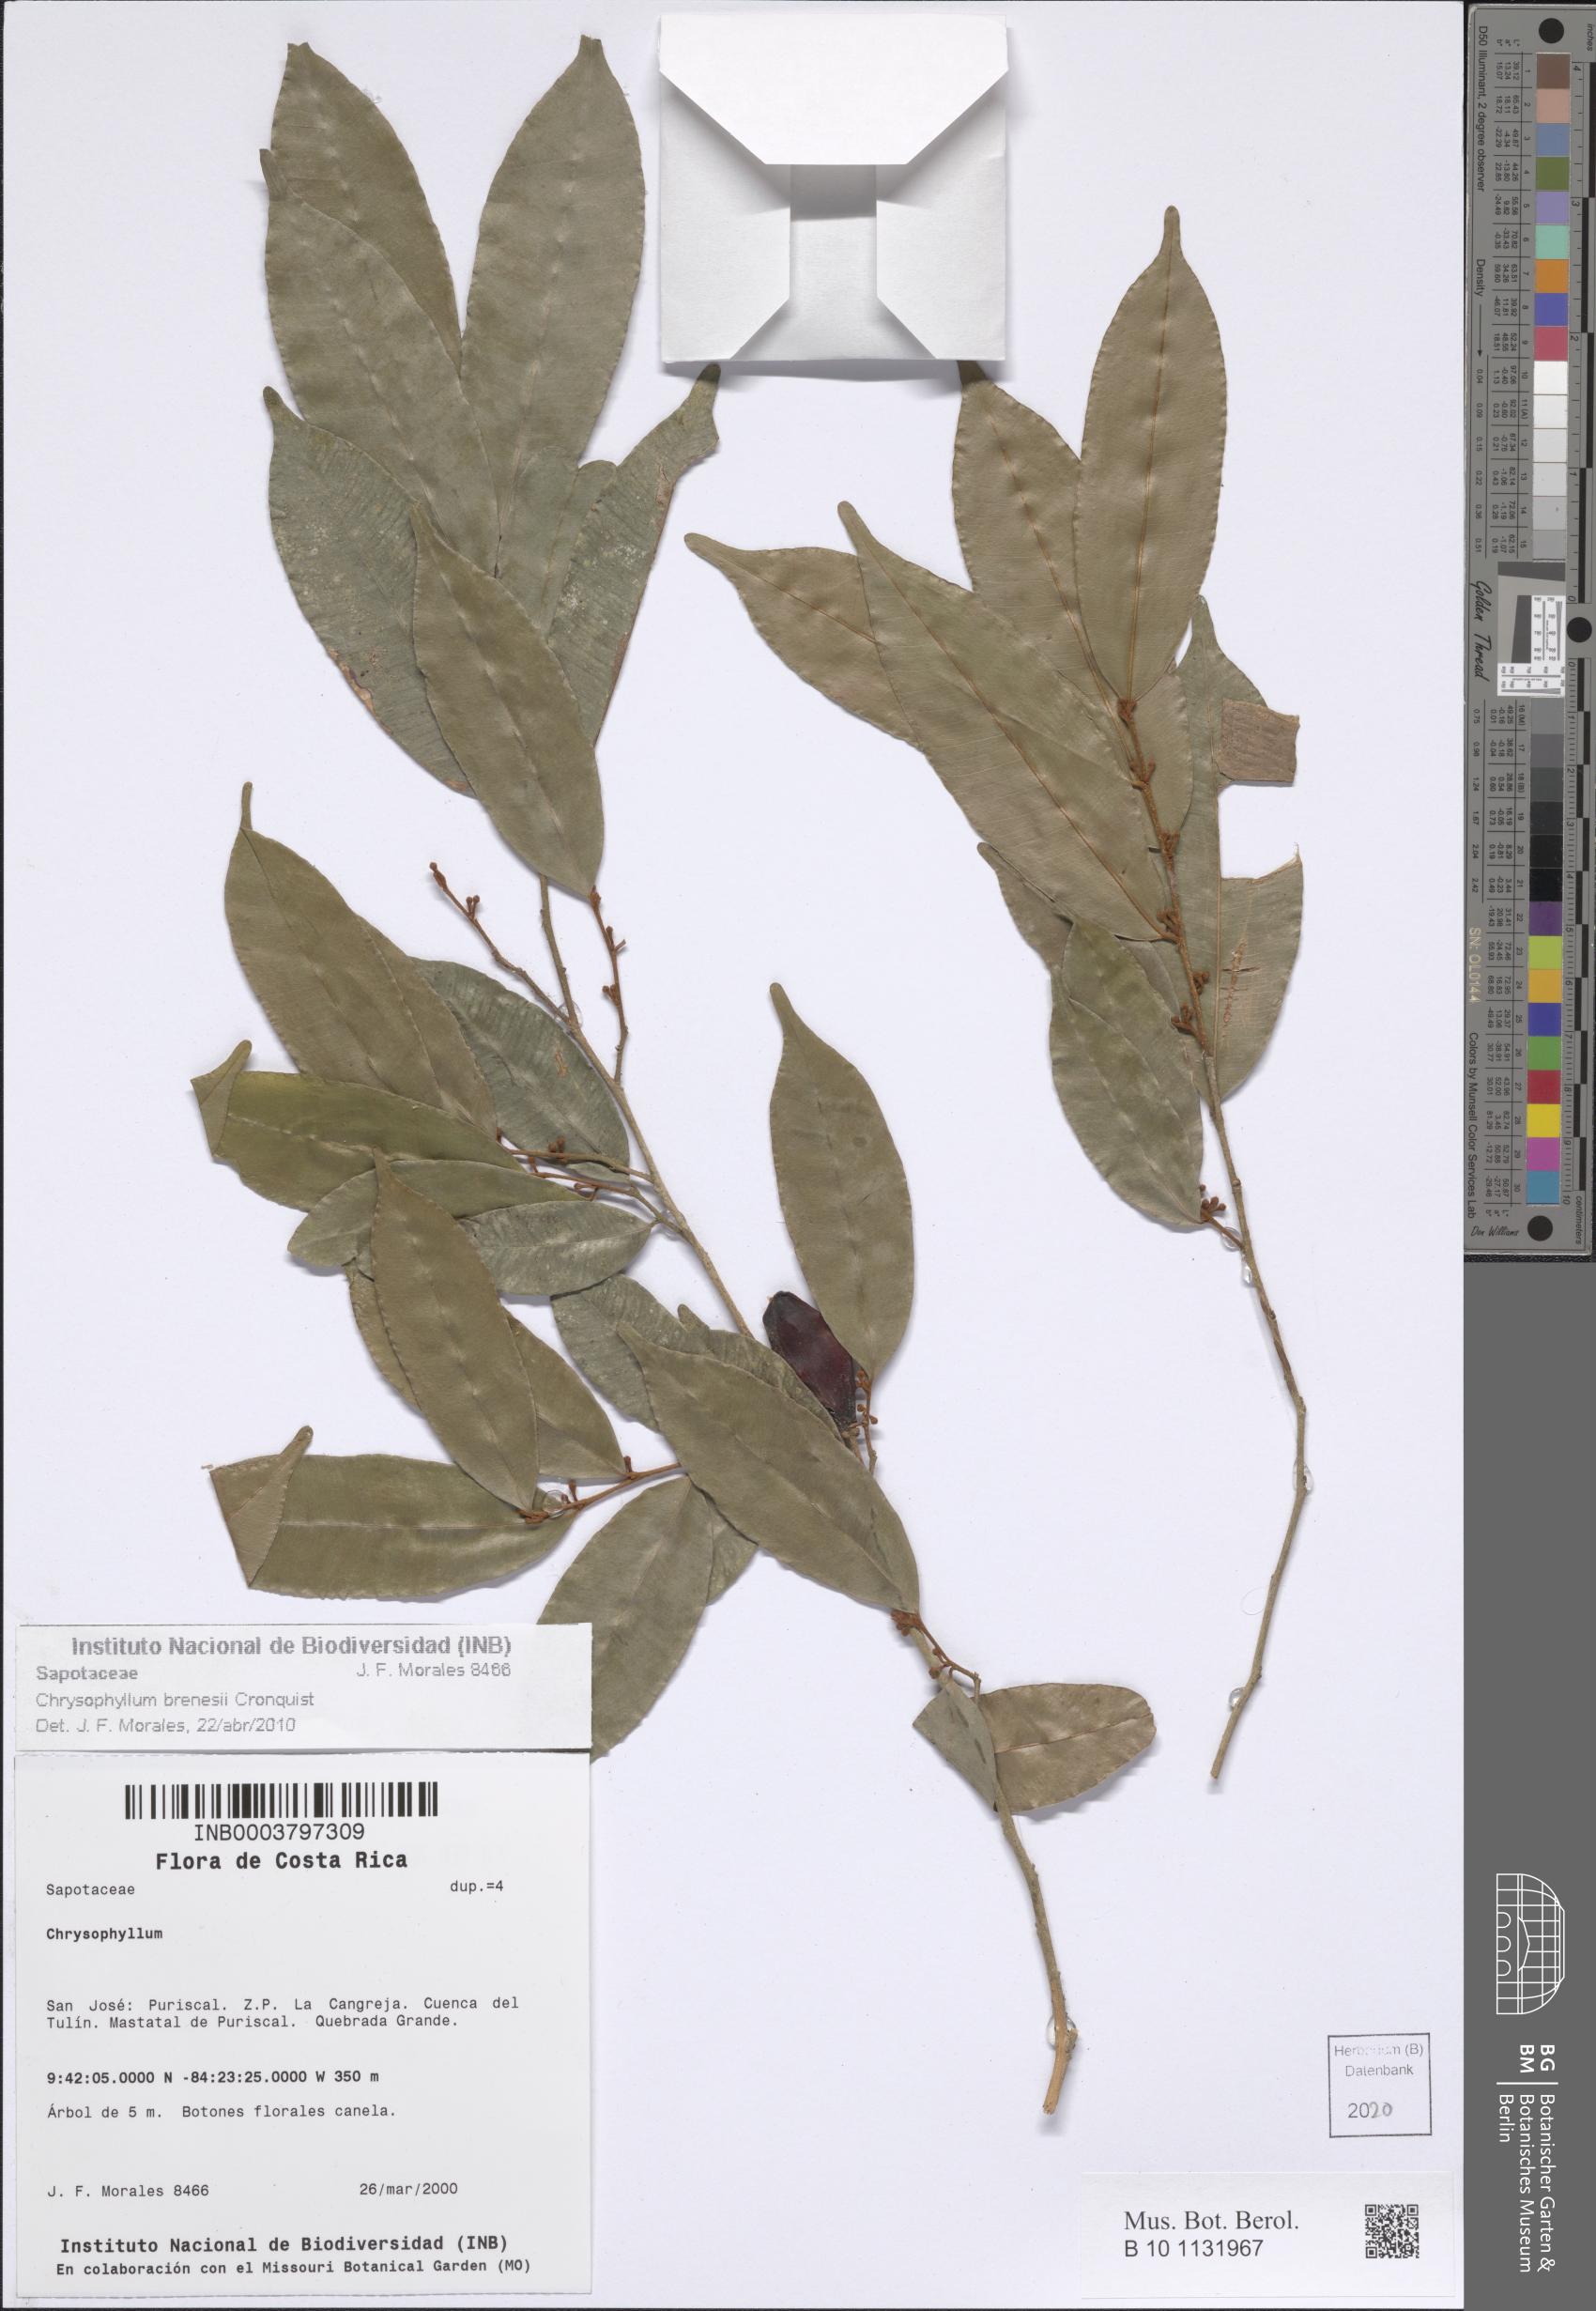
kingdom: Plantae
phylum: Tracheophyta
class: Magnoliopsida
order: Ericales
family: Sapotaceae
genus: Chrysophyllum
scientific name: Chrysophyllum brenesii
